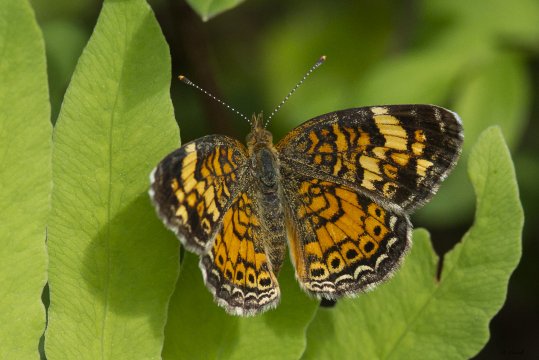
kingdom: Animalia
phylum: Arthropoda
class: Insecta
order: Lepidoptera
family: Nymphalidae
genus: Phyciodes
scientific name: Phyciodes tharos
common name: Pearl Crescent
